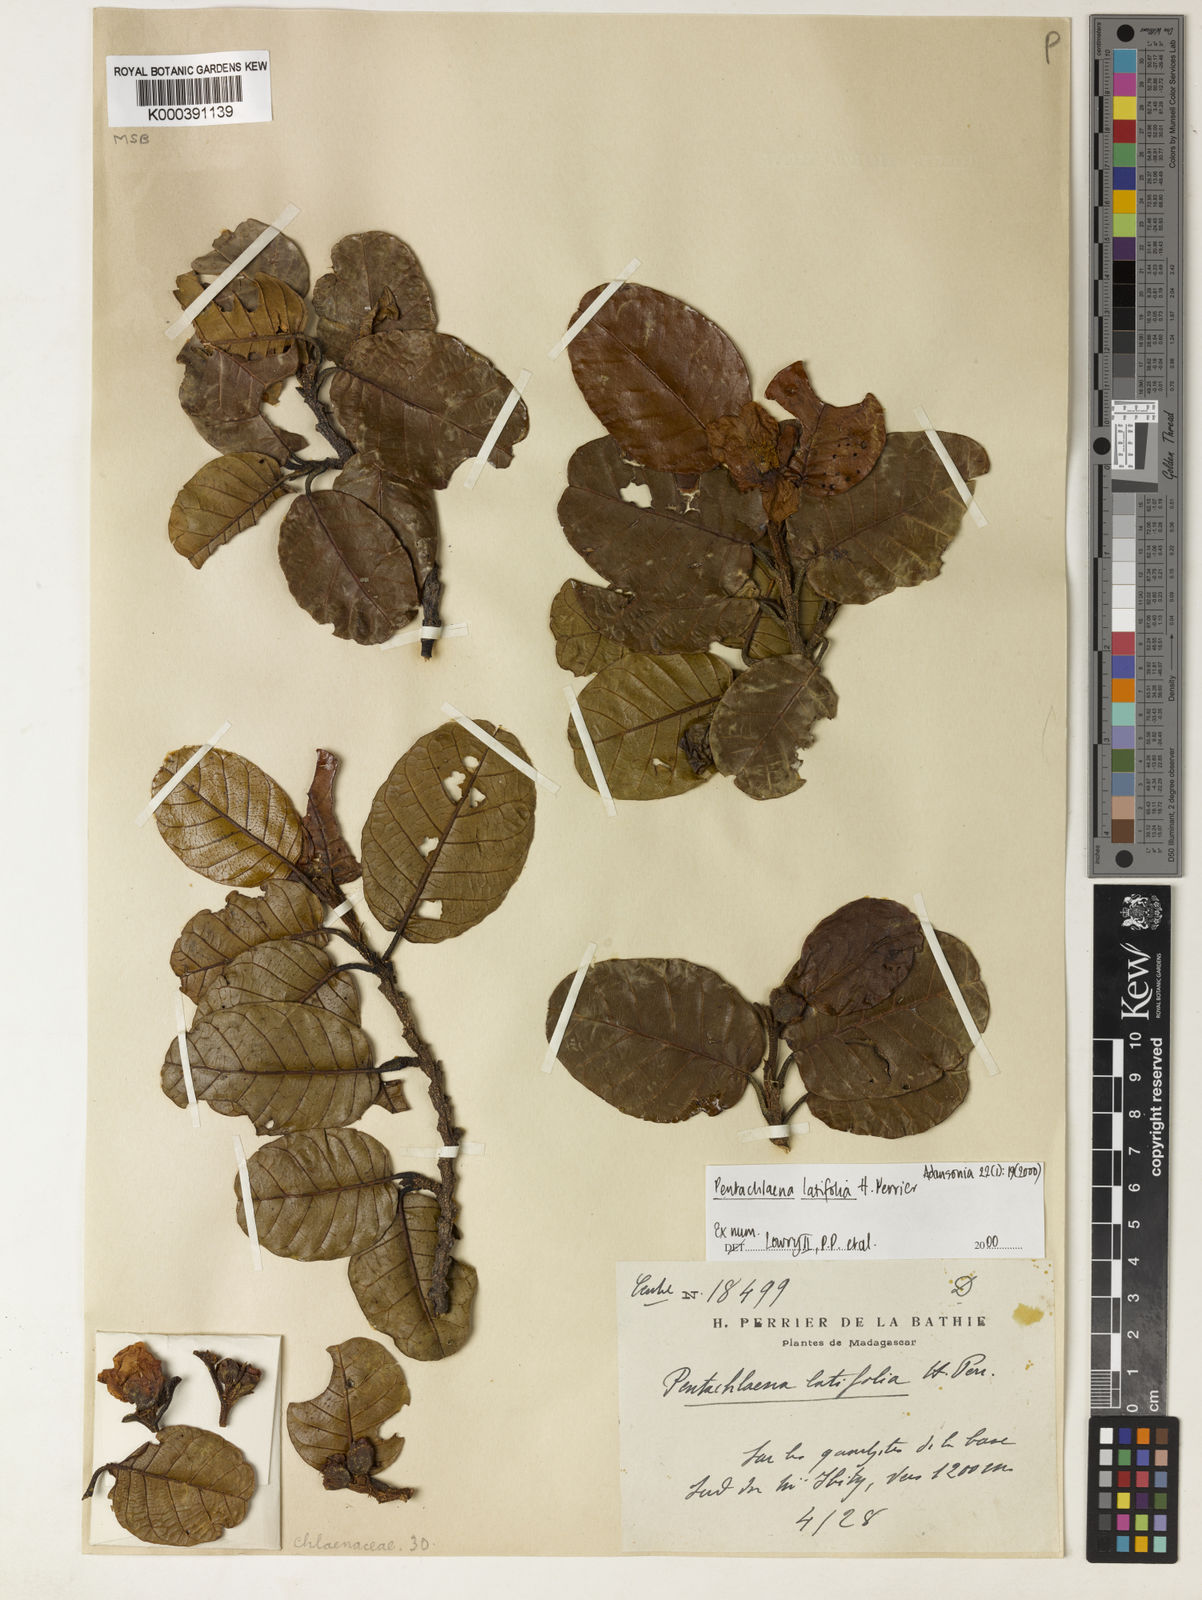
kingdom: Plantae
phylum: Tracheophyta
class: Magnoliopsida
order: Malvales
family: Sarcolaenaceae
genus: Pentachlaena
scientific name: Pentachlaena latifolia
